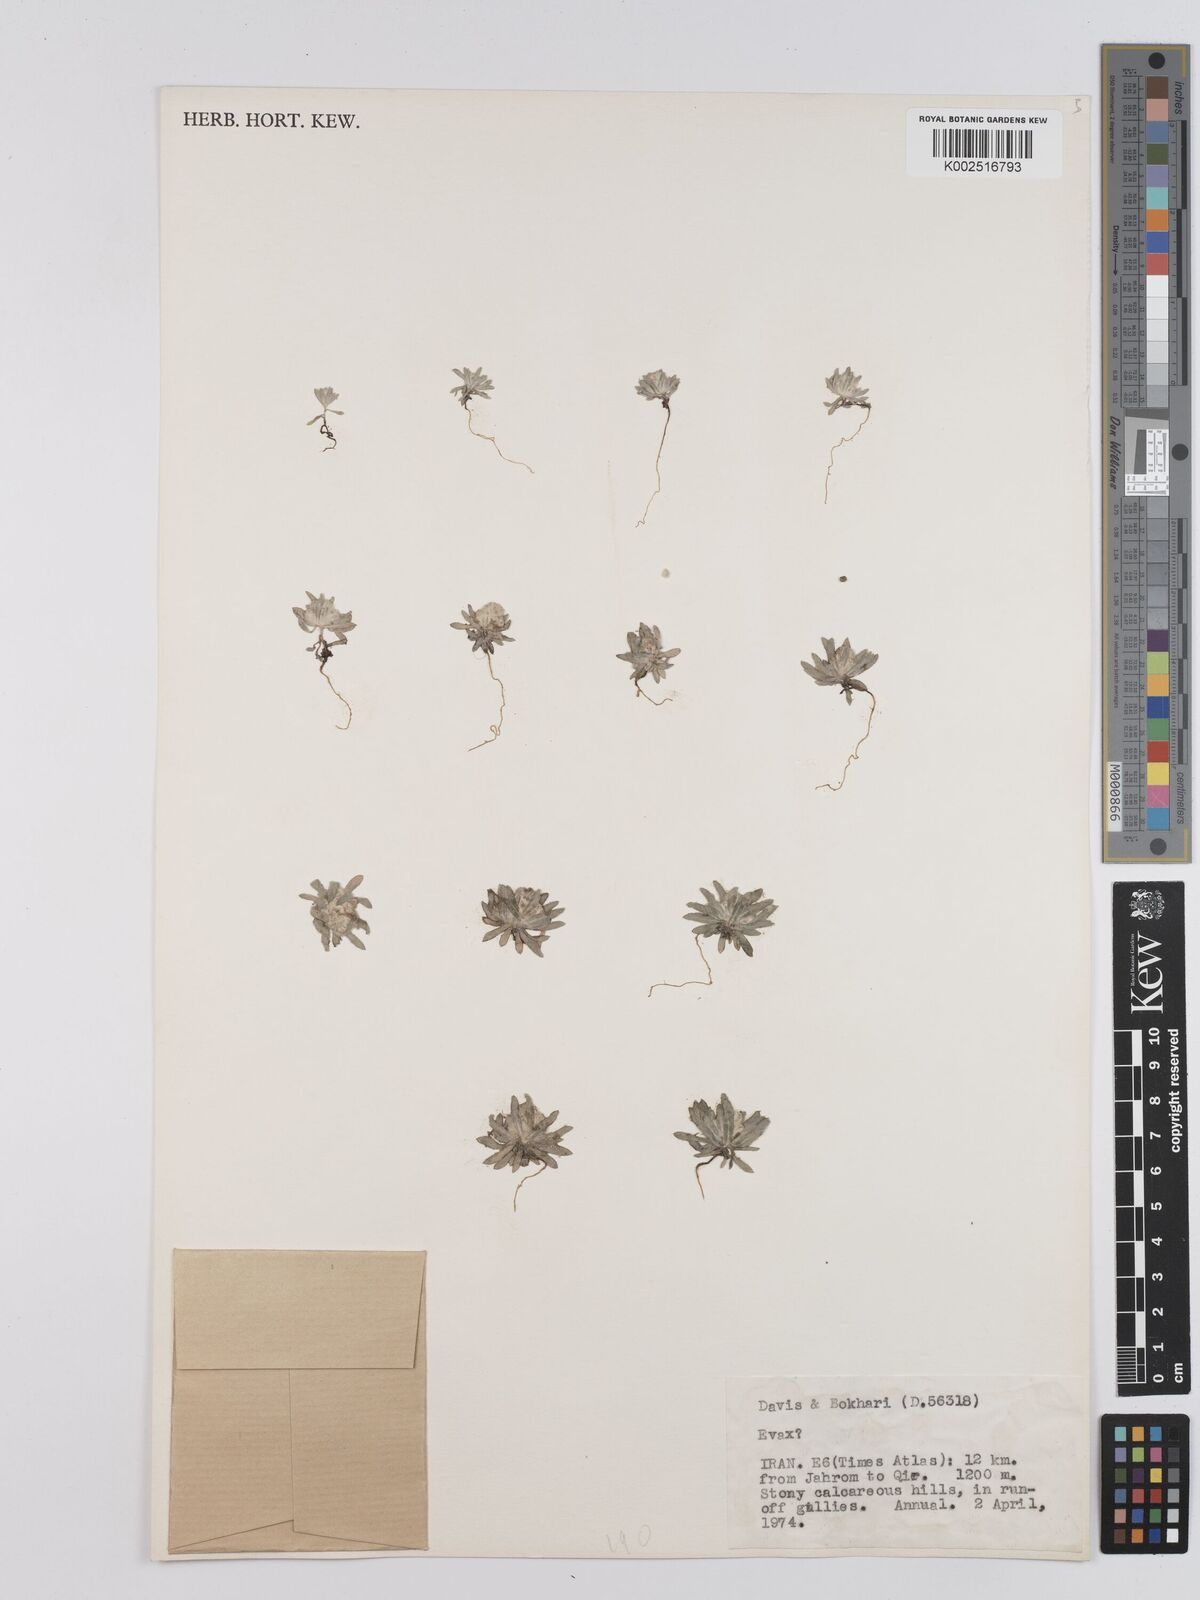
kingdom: Plantae
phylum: Tracheophyta
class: Magnoliopsida
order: Asterales
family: Asteraceae
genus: Filago
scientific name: Filago
